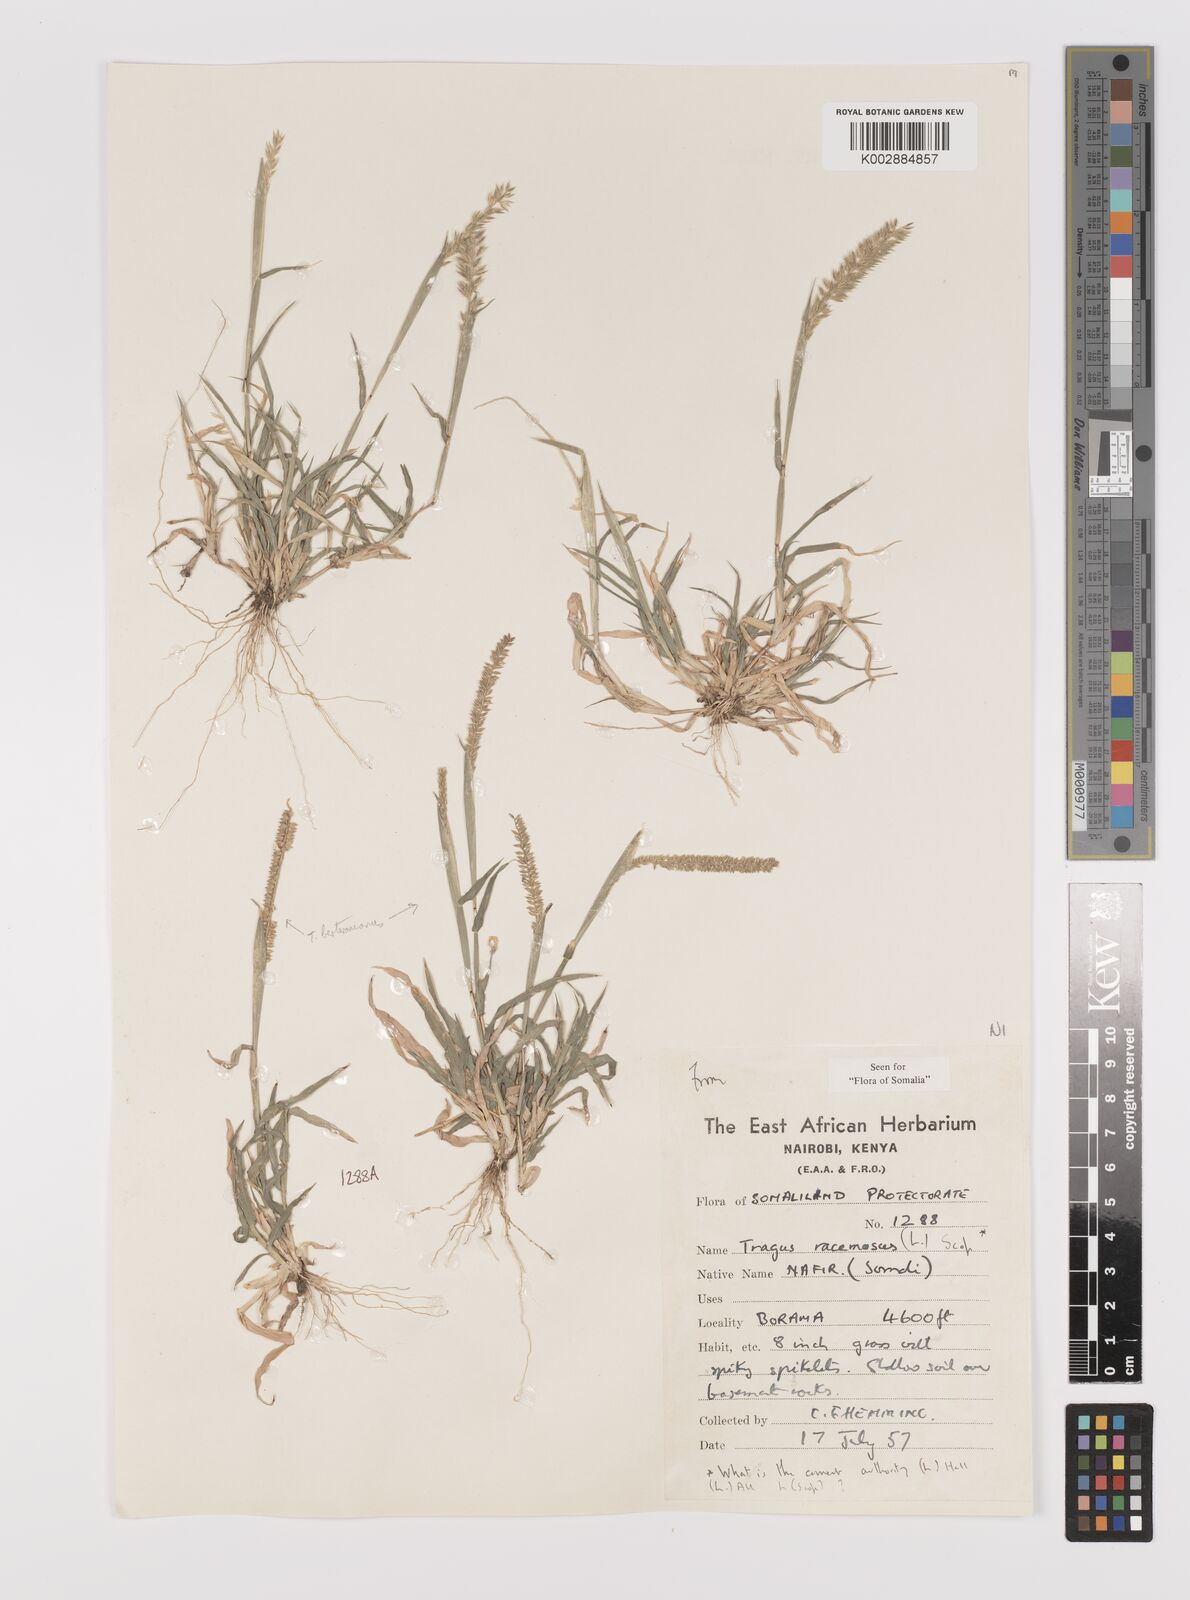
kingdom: Plantae
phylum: Tracheophyta
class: Liliopsida
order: Poales
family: Poaceae
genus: Tragus
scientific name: Tragus racemosus
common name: European bur-grass
